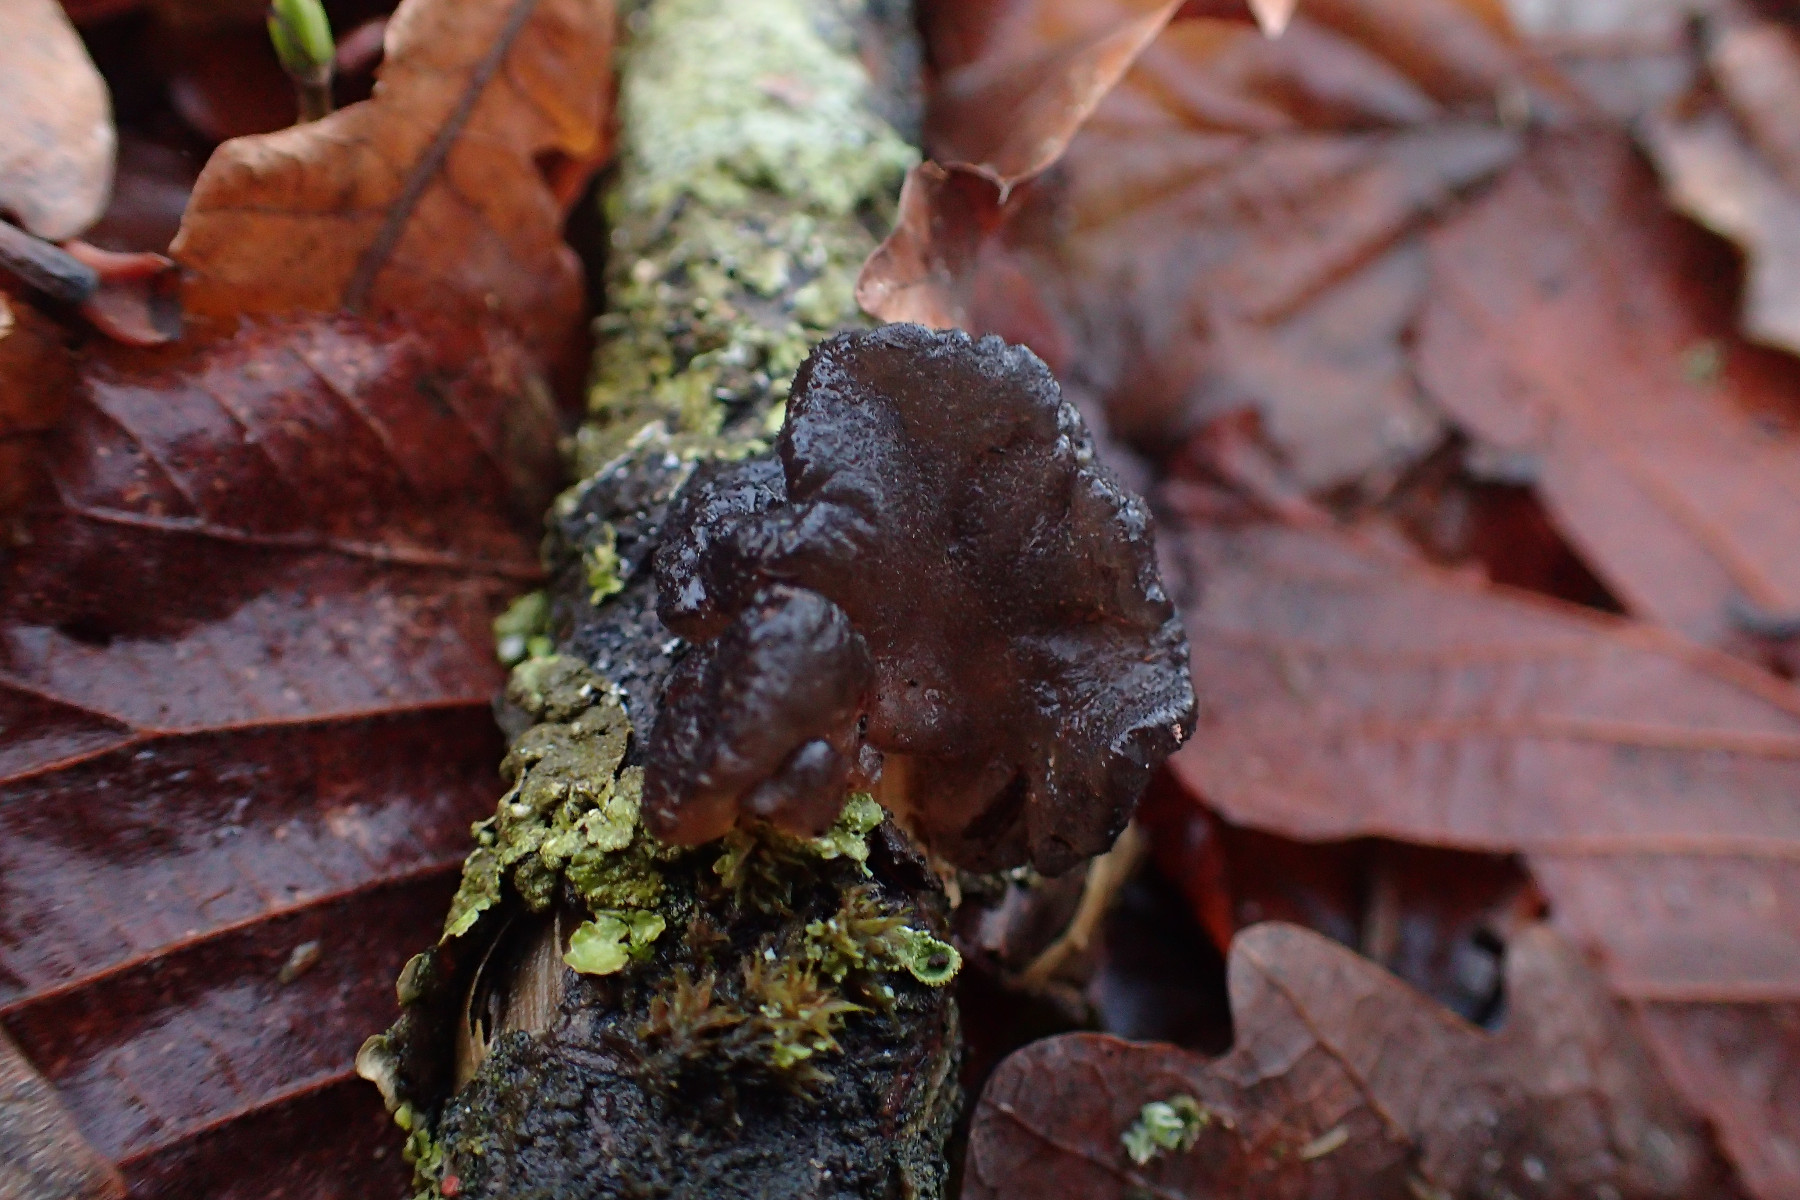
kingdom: Fungi
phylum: Basidiomycota
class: Agaricomycetes
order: Auriculariales
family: Auriculariaceae
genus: Exidia
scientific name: Exidia glandulosa
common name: ege-bævretop
